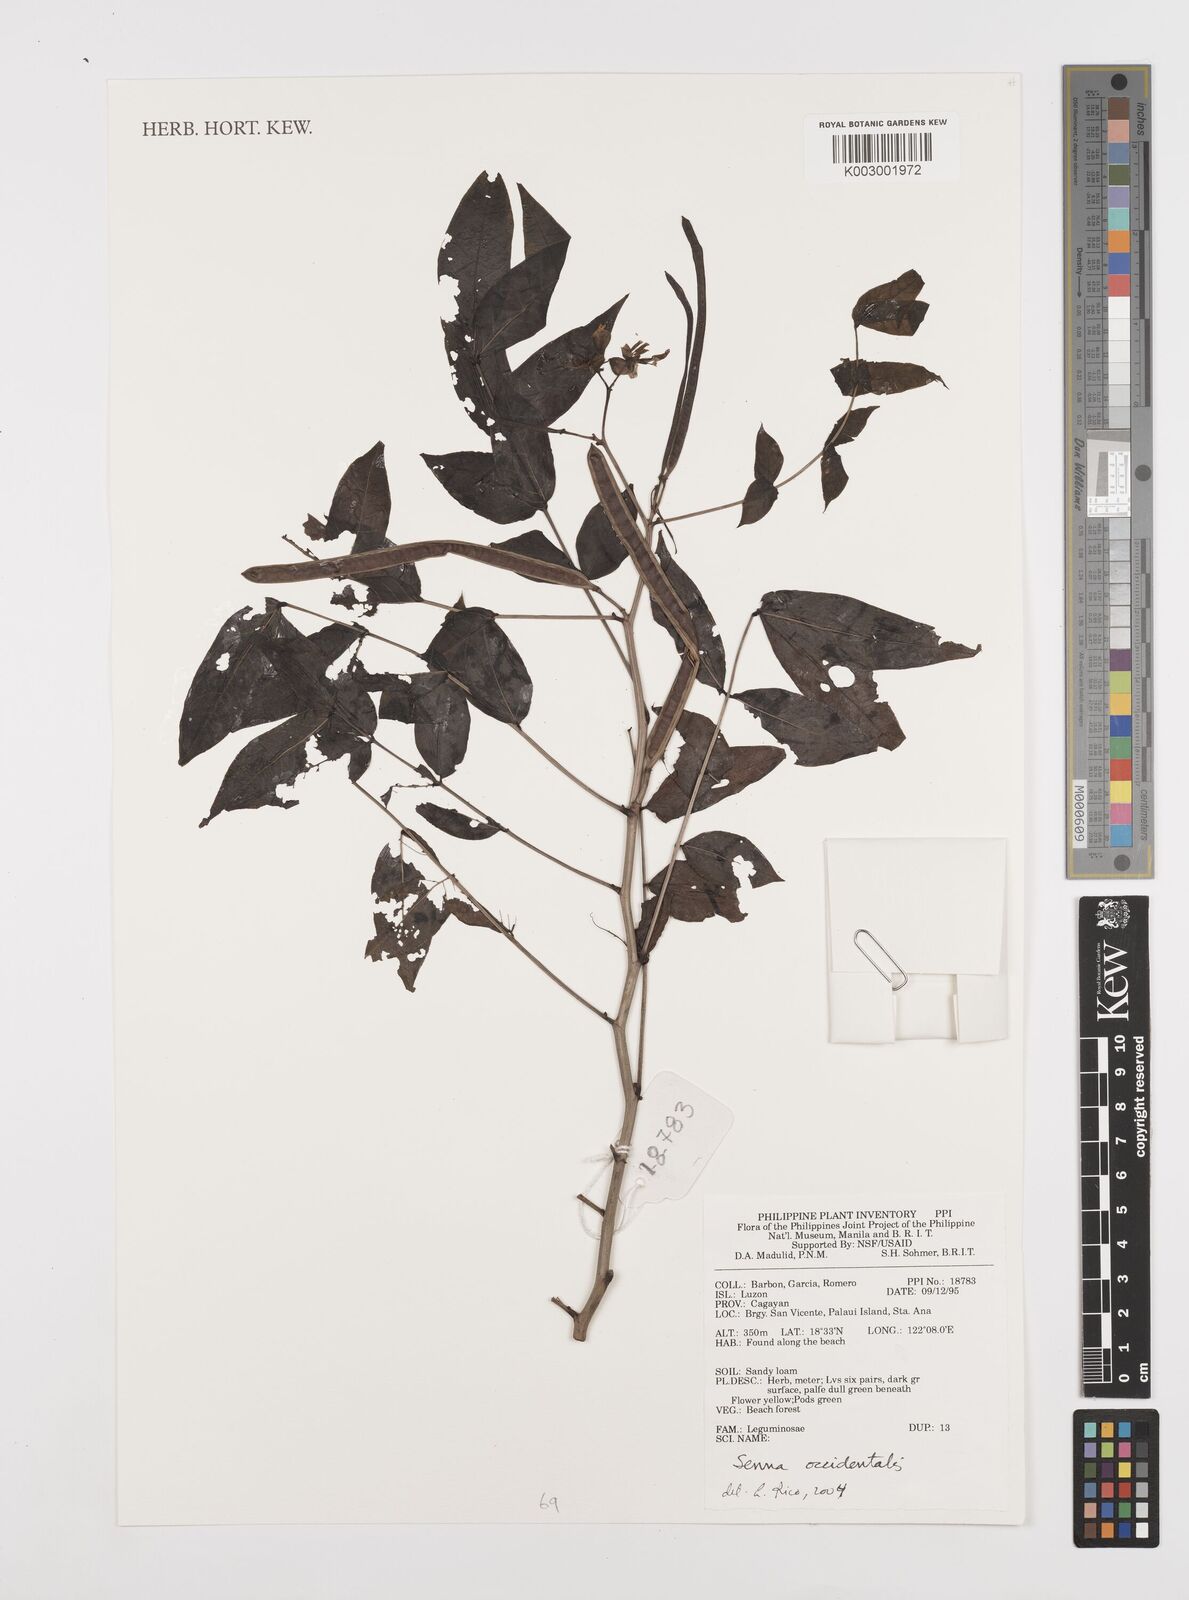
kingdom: Plantae
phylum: Tracheophyta
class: Magnoliopsida
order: Fabales
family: Fabaceae
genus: Senna
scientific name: Senna occidentalis
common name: Septicweed
